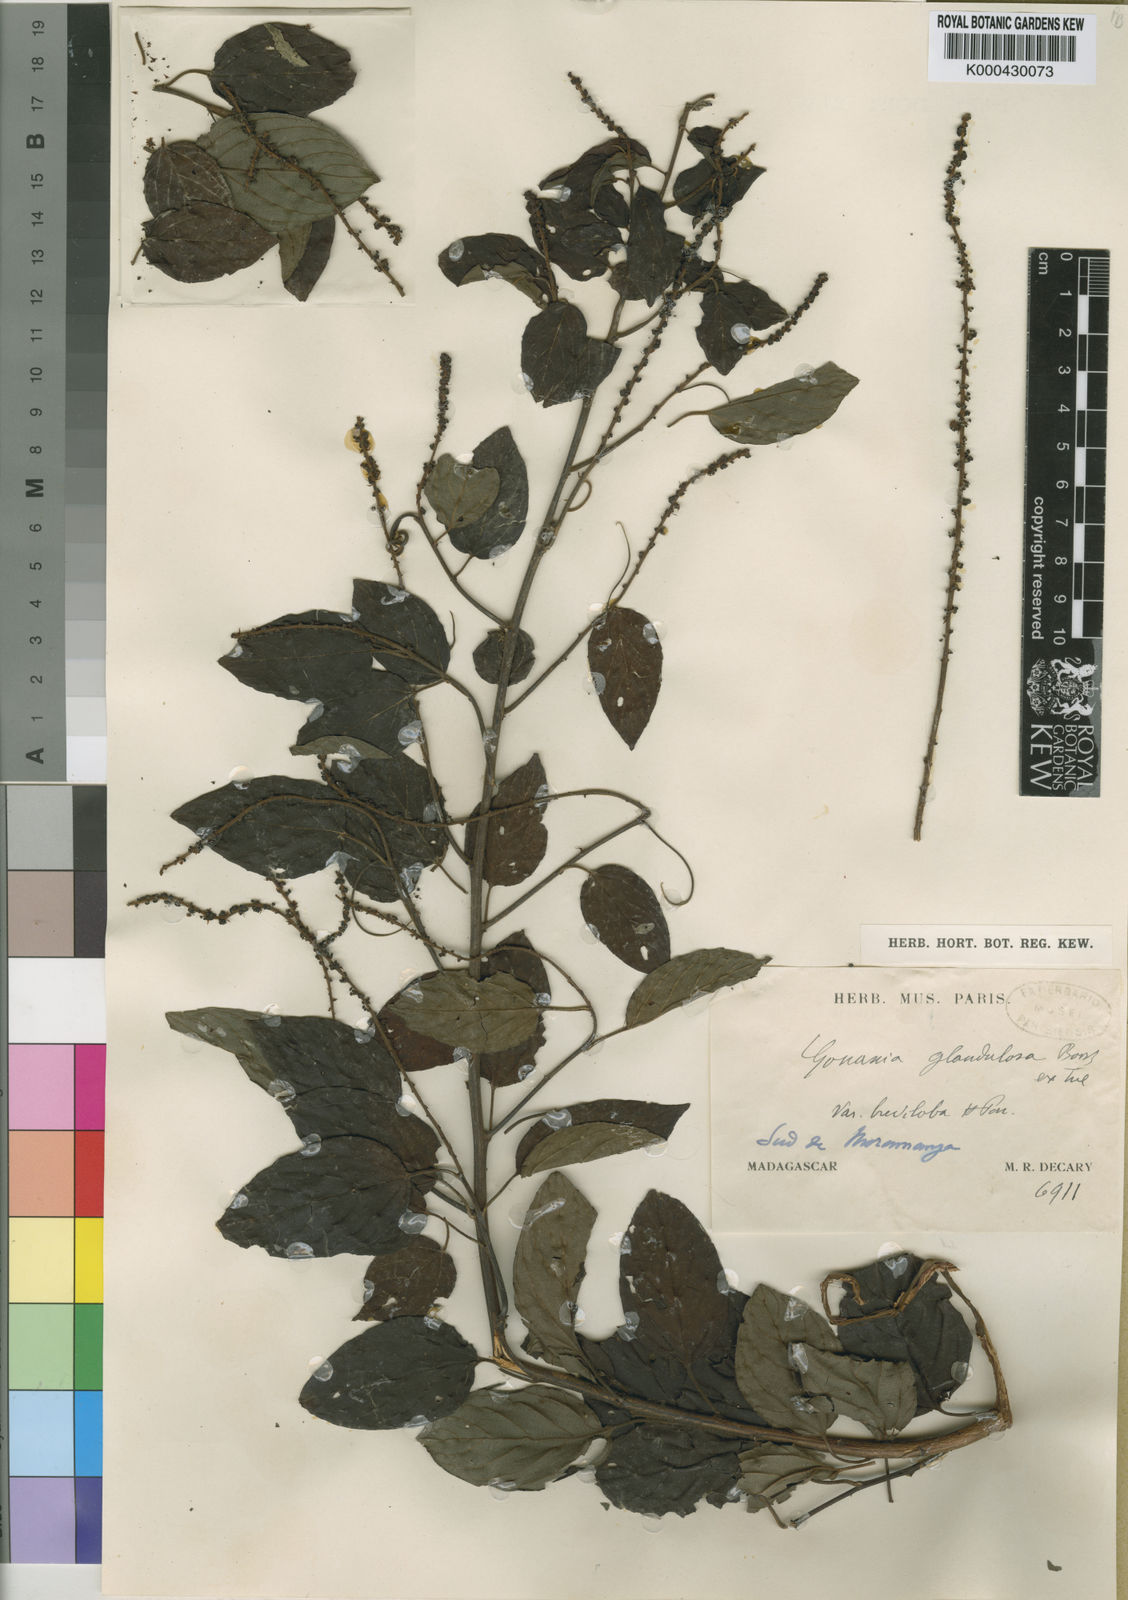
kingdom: Plantae
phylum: Tracheophyta
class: Magnoliopsida
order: Rosales
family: Rhamnaceae
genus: Gouania
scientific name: Gouania tiliifolia
